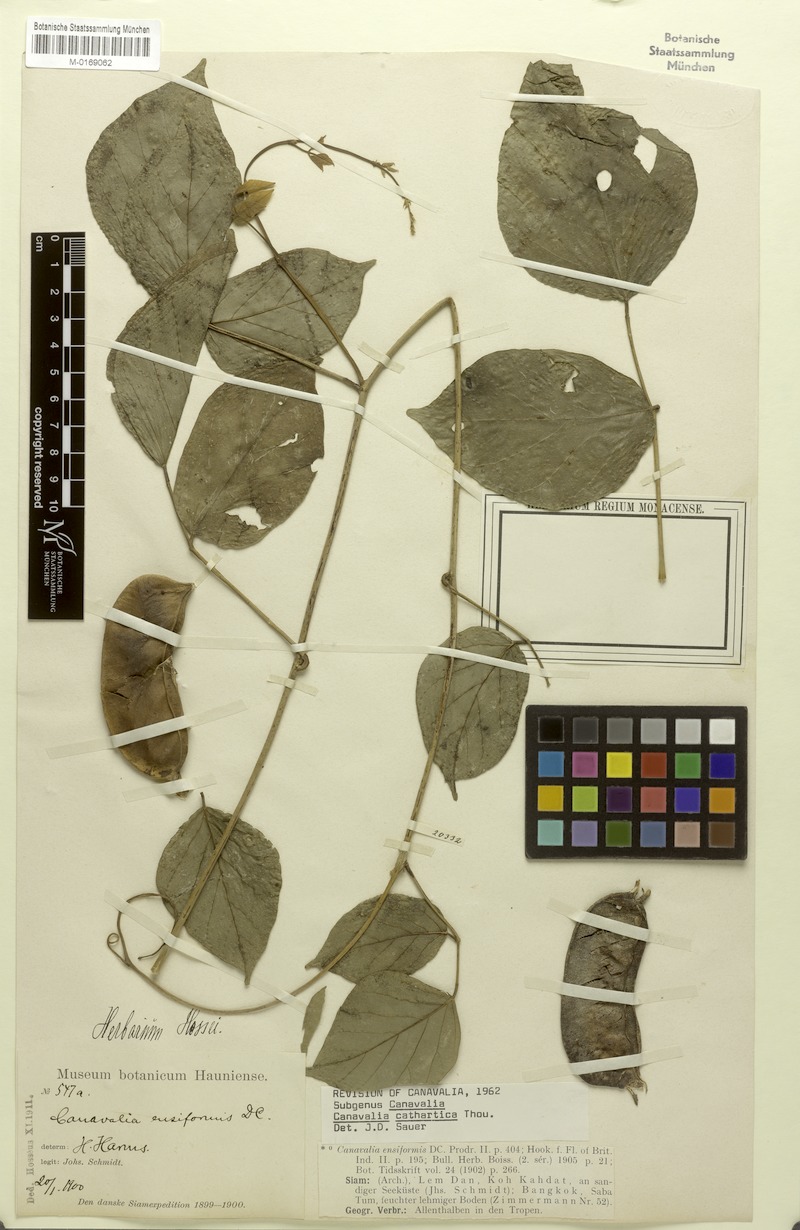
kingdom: Plantae
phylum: Tracheophyta
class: Magnoliopsida
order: Fabales
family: Fabaceae
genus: Canavalia
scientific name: Canavalia cathartica
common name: Maunaloa
